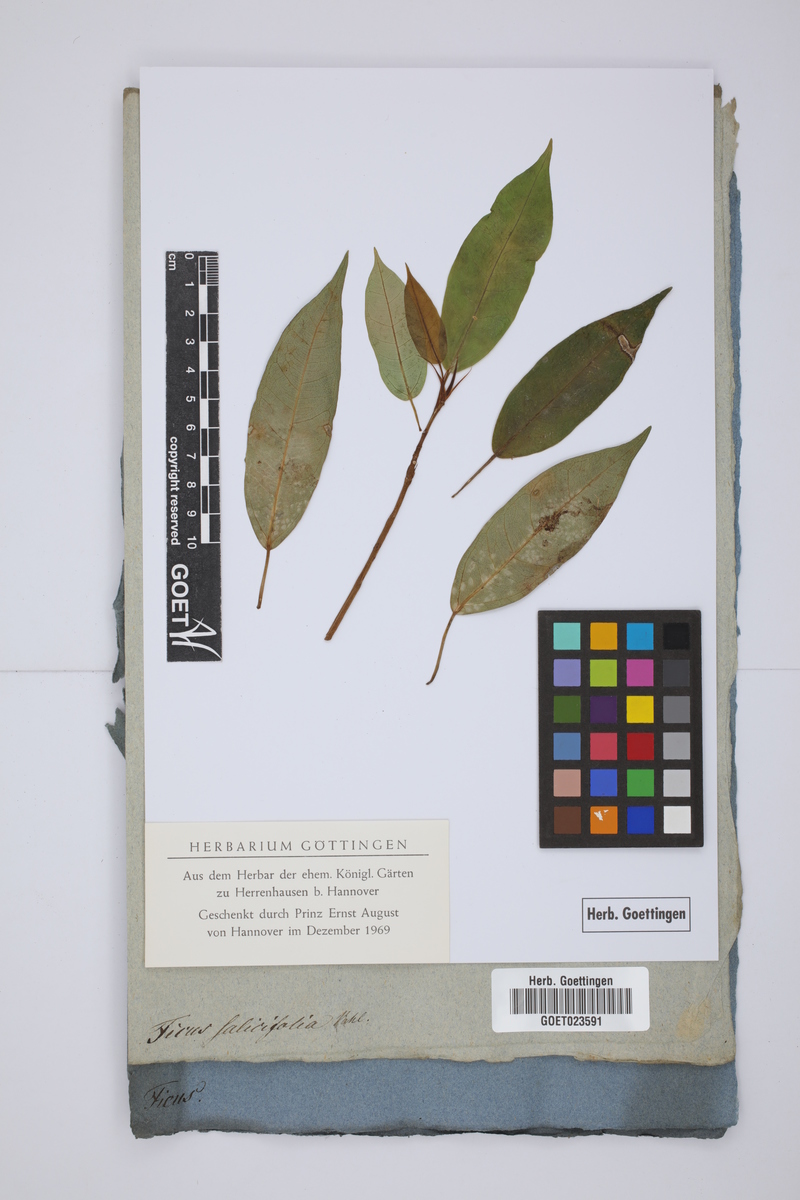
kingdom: Plantae
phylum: Tracheophyta
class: Magnoliopsida
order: Rosales
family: Moraceae
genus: Ficus
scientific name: Ficus salicifolia
